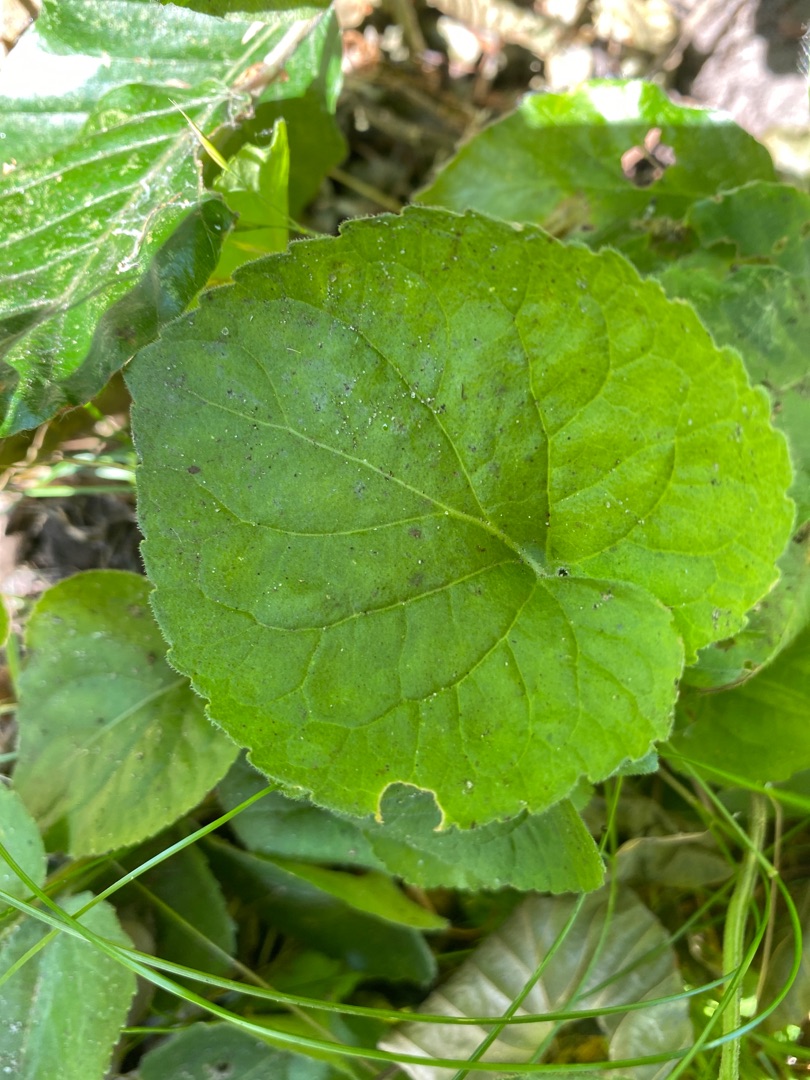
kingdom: Plantae
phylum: Tracheophyta
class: Magnoliopsida
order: Malpighiales
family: Violaceae
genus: Viola
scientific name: Viola odorata
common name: Marts-viol
